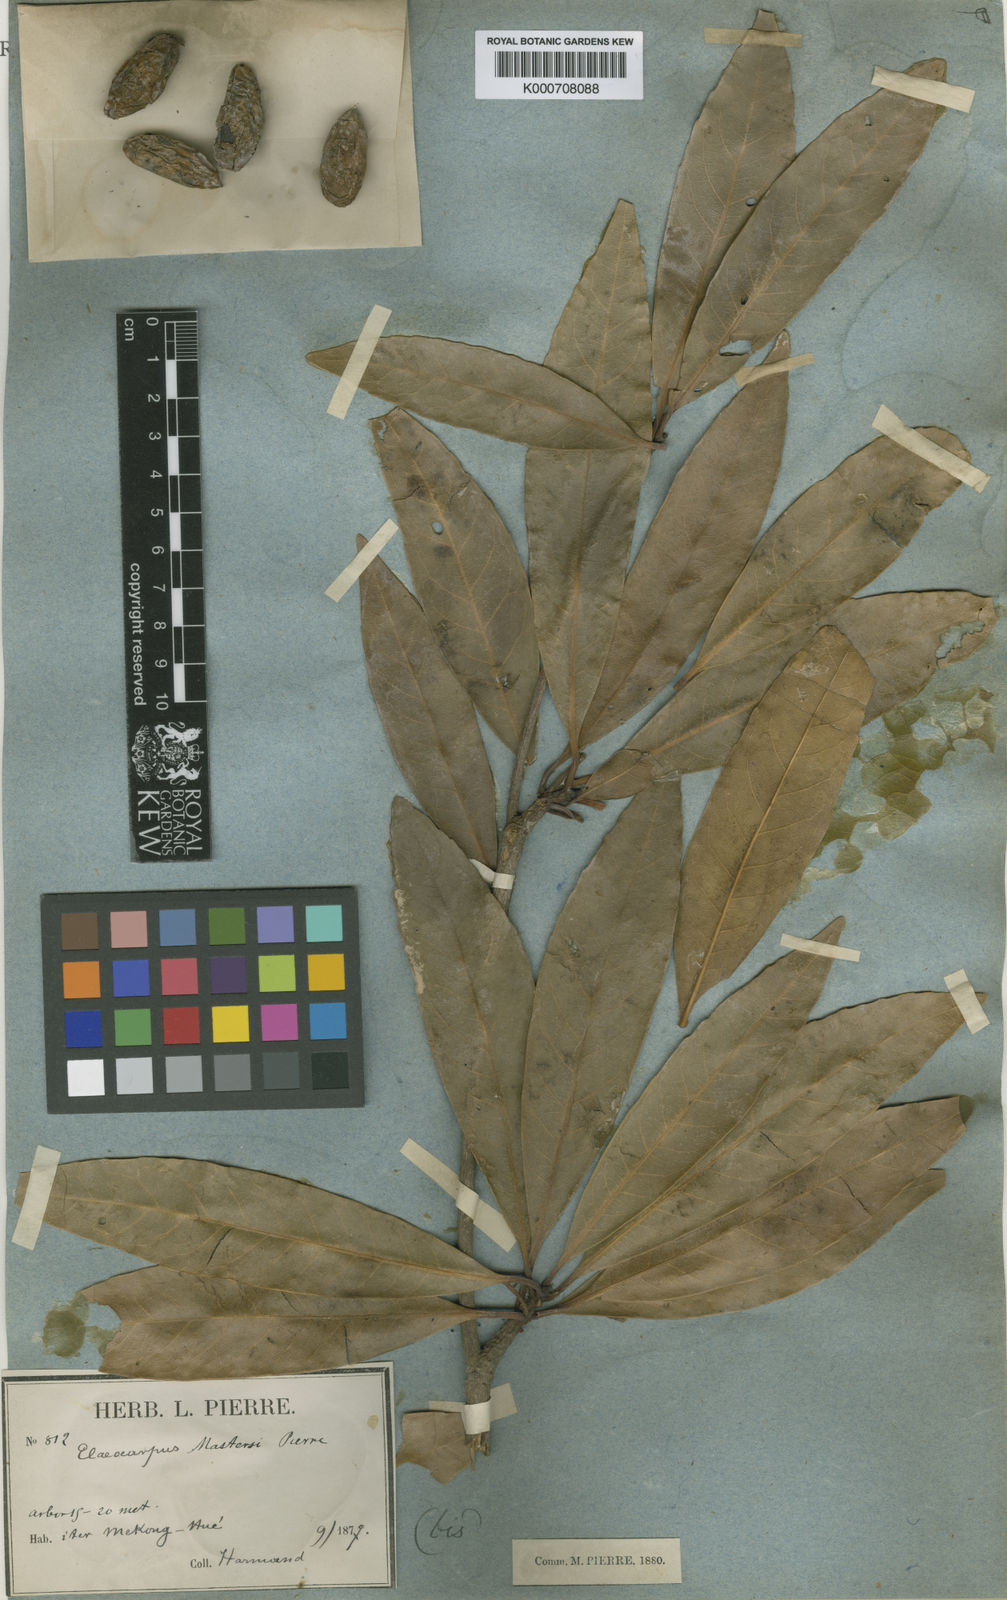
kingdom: Plantae
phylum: Tracheophyta
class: Magnoliopsida
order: Oxalidales
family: Elaeocarpaceae
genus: Elaeocarpus
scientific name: Elaeocarpus rivularis
